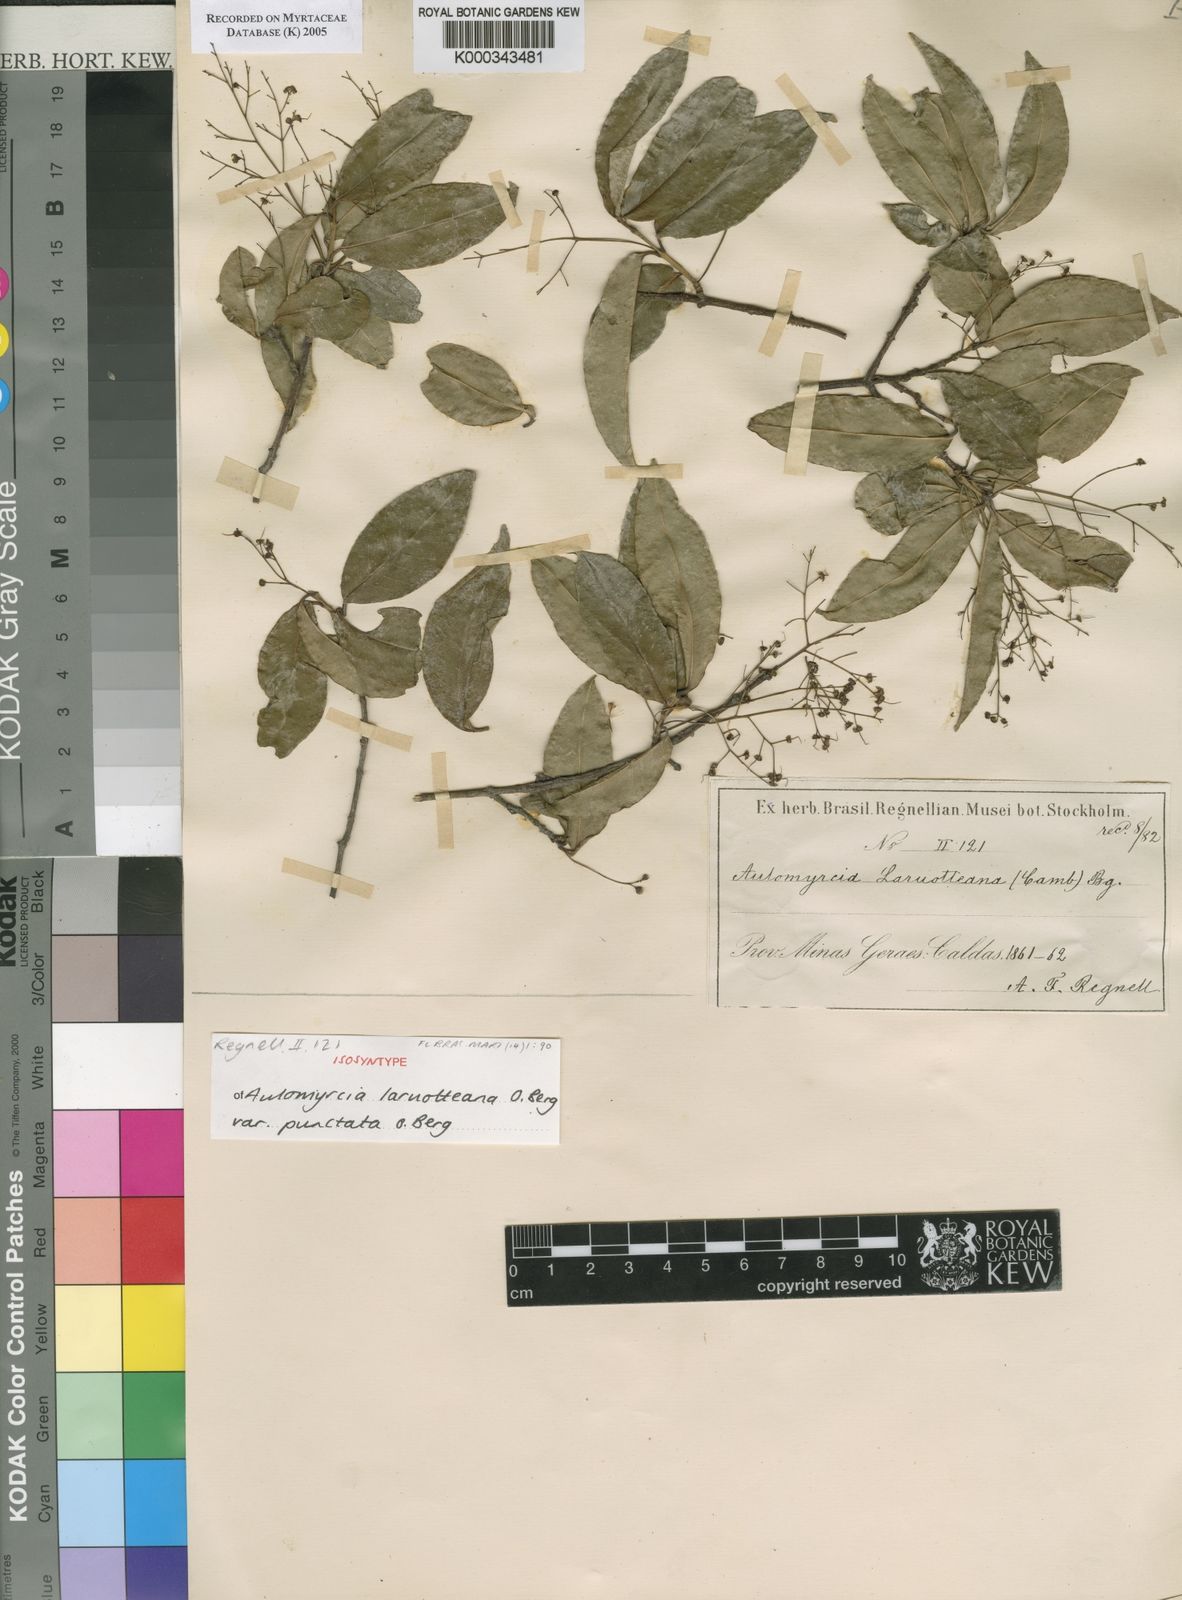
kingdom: Plantae
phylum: Tracheophyta
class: Magnoliopsida
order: Myrtales
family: Myrtaceae
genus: Myrcia
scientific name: Myrcia laruotteana
